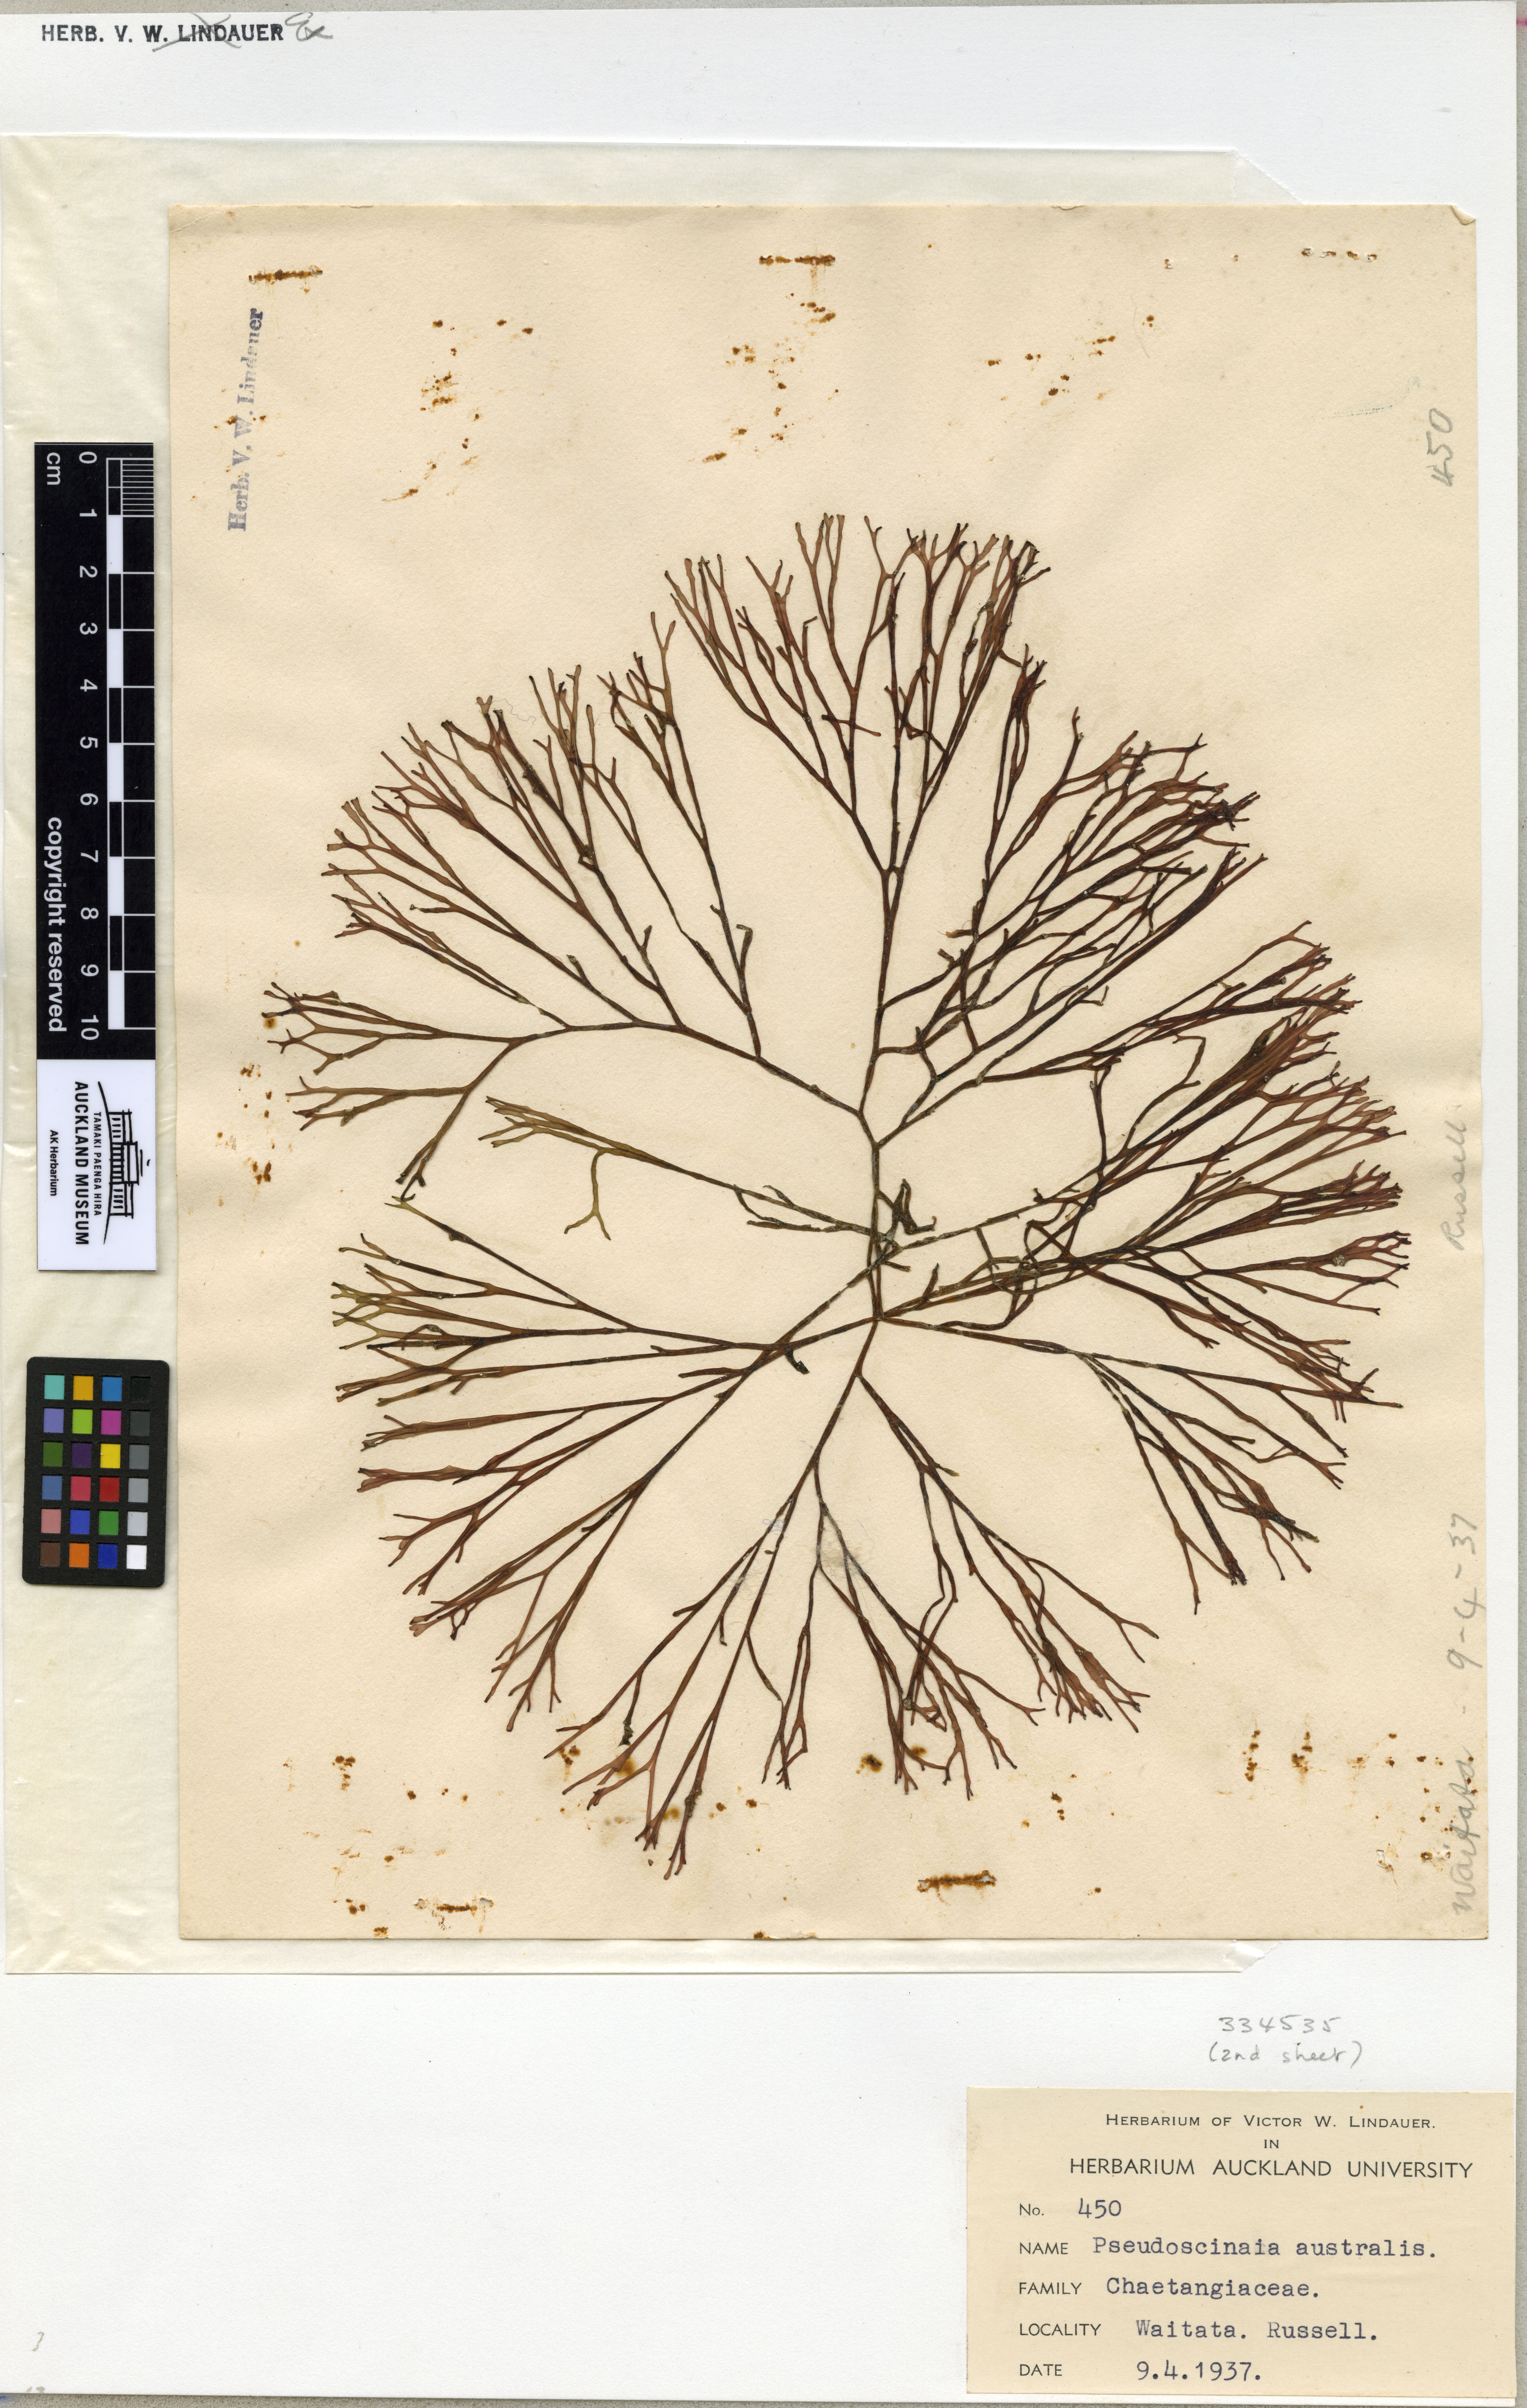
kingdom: Plantae
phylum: Rhodophyta
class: Florideophyceae
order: Nemaliales
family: Scinaiaceae
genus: Scinaia
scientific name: Scinaia acuta
